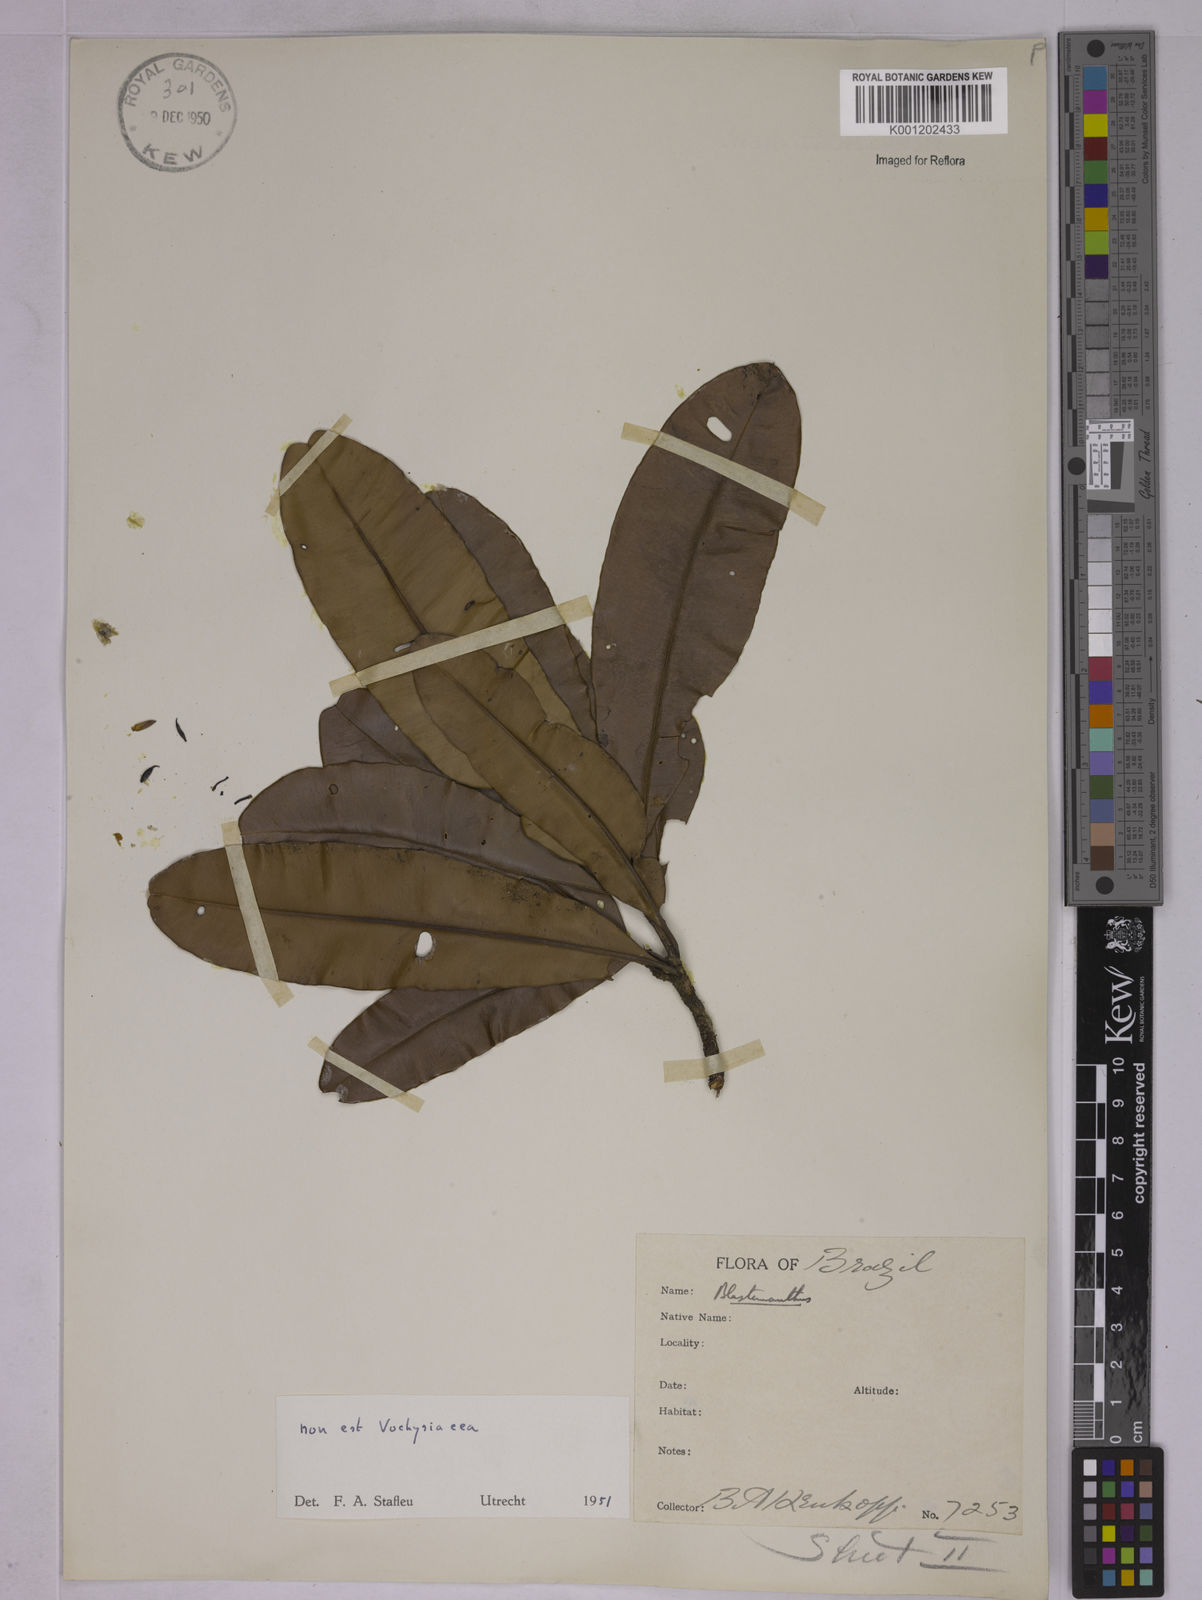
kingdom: Plantae
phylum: Tracheophyta
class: Magnoliopsida
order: Malpighiales
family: Ochnaceae
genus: Blastemanthus
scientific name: Blastemanthus gemmiflorus
